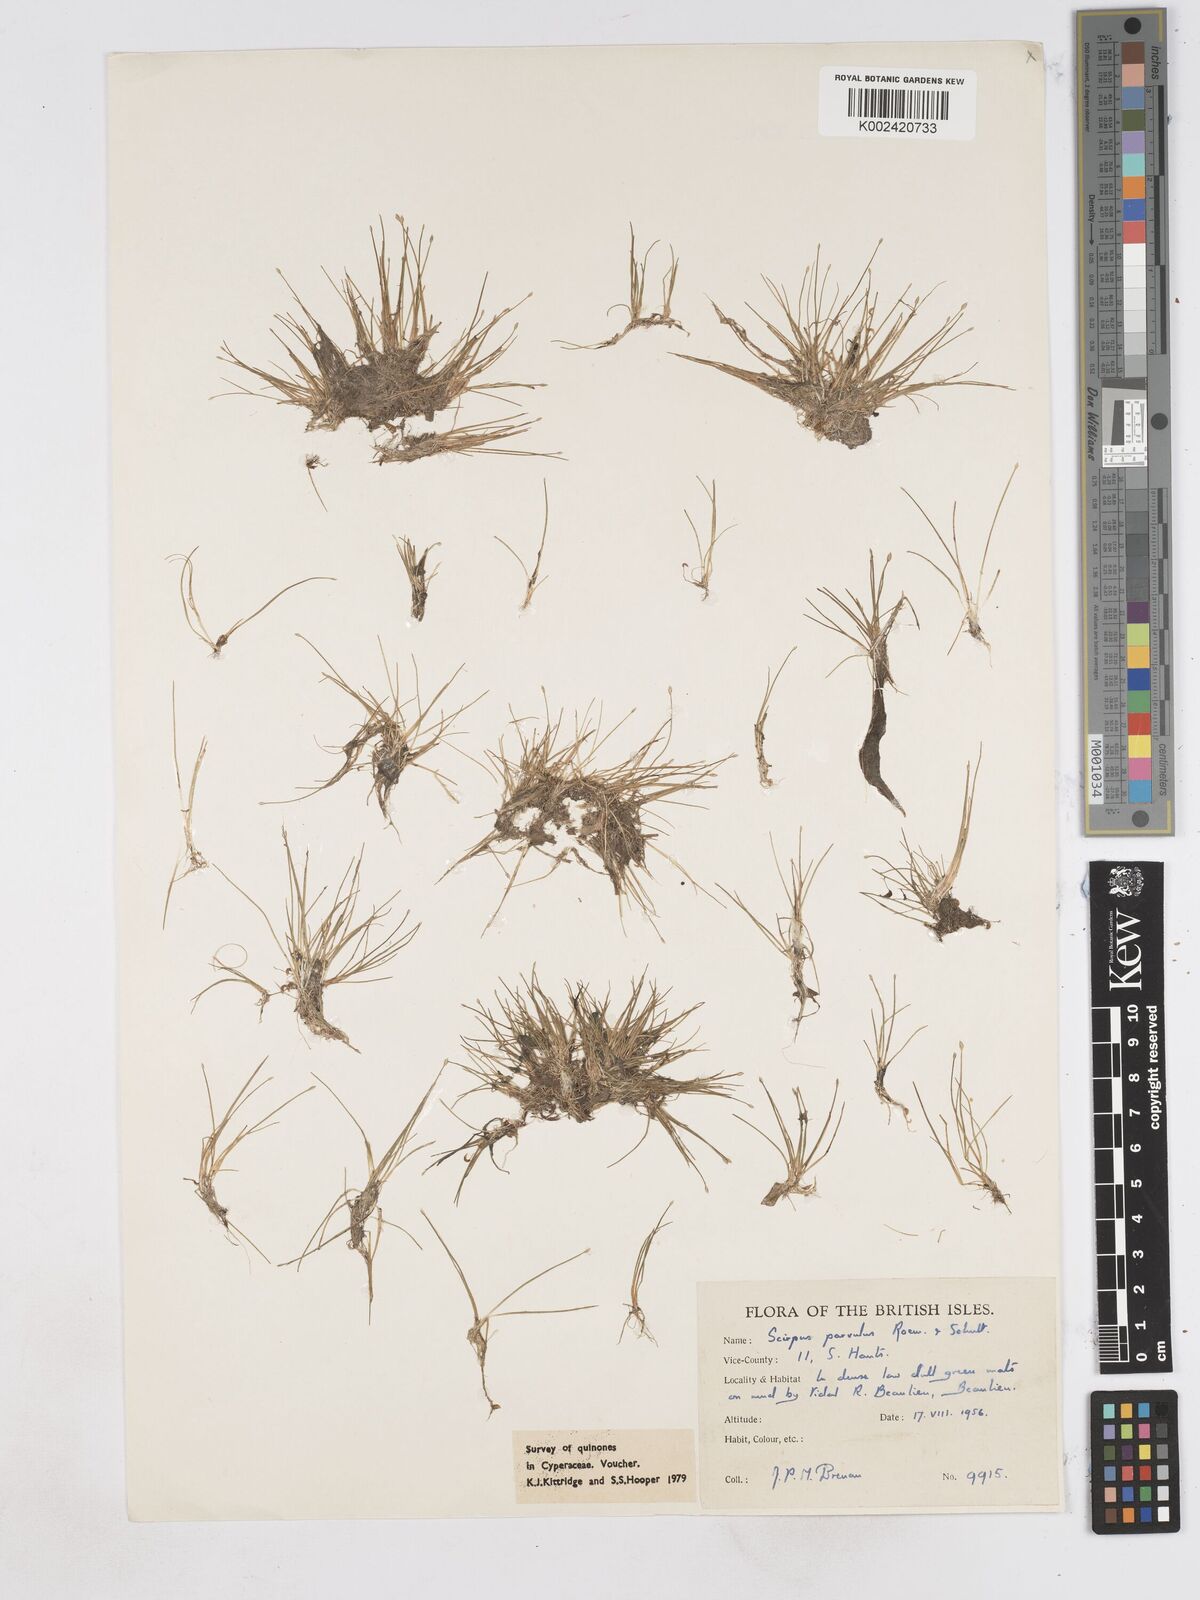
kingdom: Plantae
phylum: Tracheophyta
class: Liliopsida
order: Poales
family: Cyperaceae
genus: Eleocharis
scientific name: Eleocharis parvula
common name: Dwarf spike-rush
